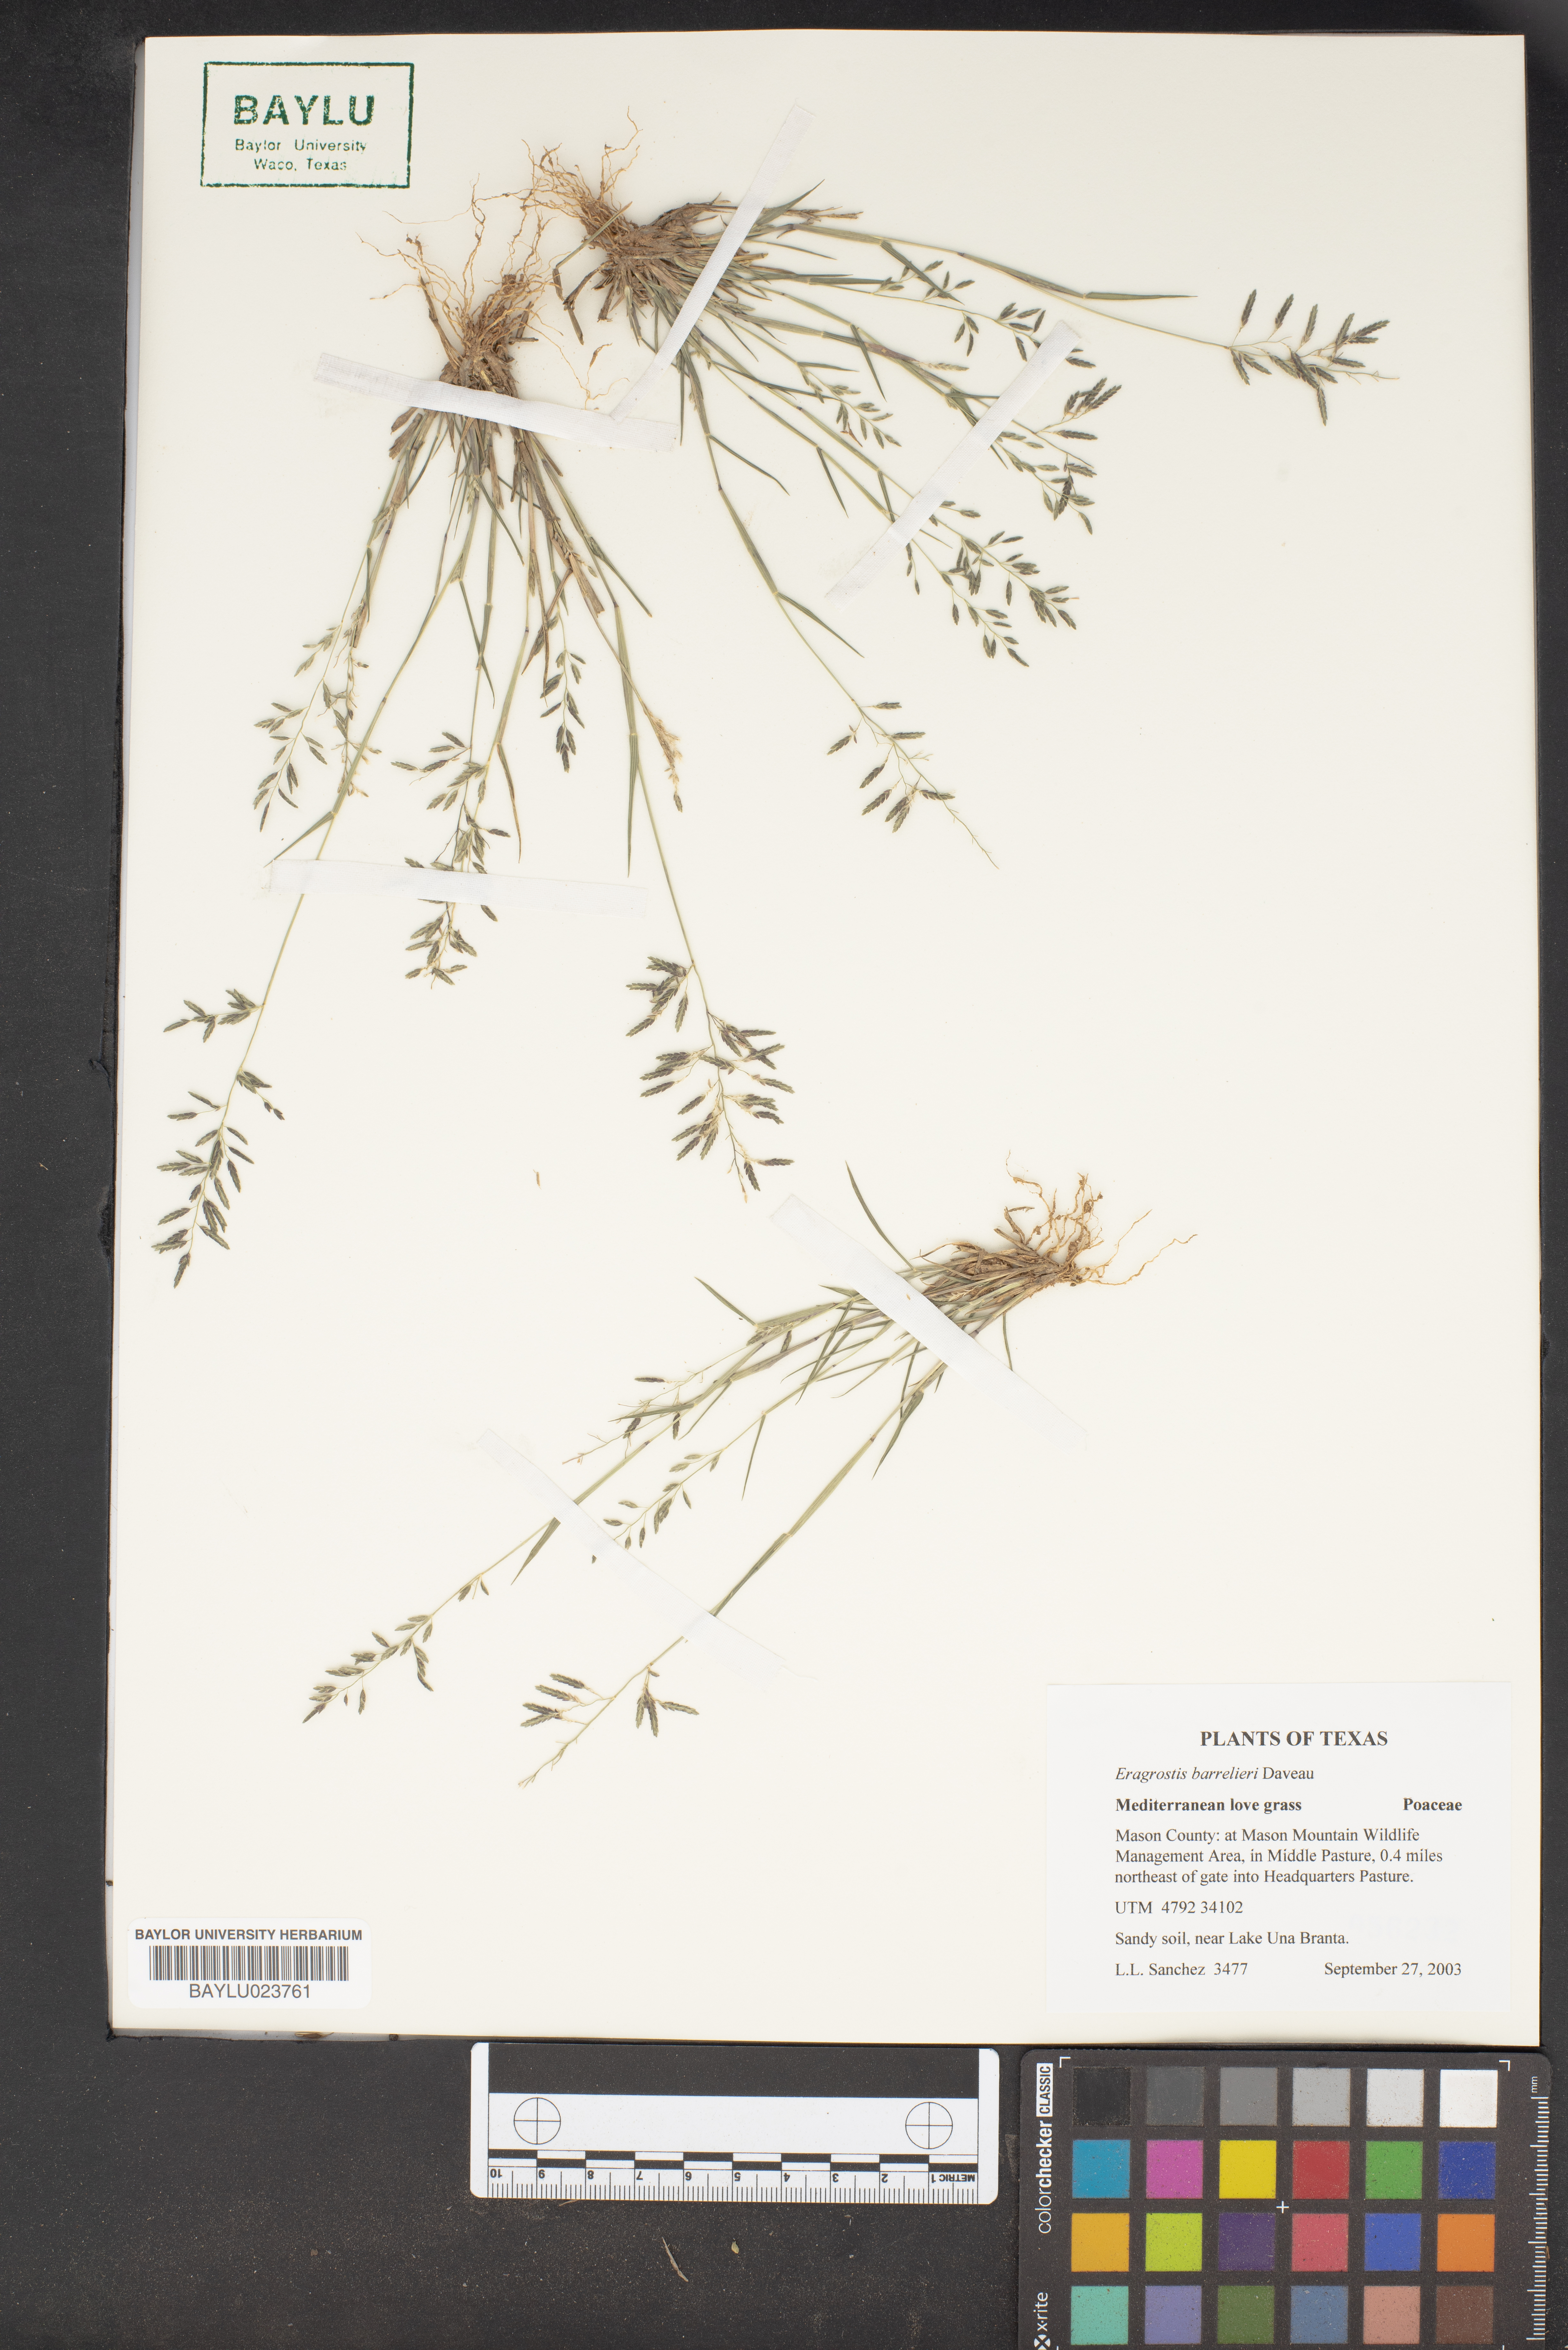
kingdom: Plantae
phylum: Tracheophyta
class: Liliopsida
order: Poales
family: Poaceae
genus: Eragrostis
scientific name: Eragrostis barrelieri
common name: Mediterranean lovegrass
